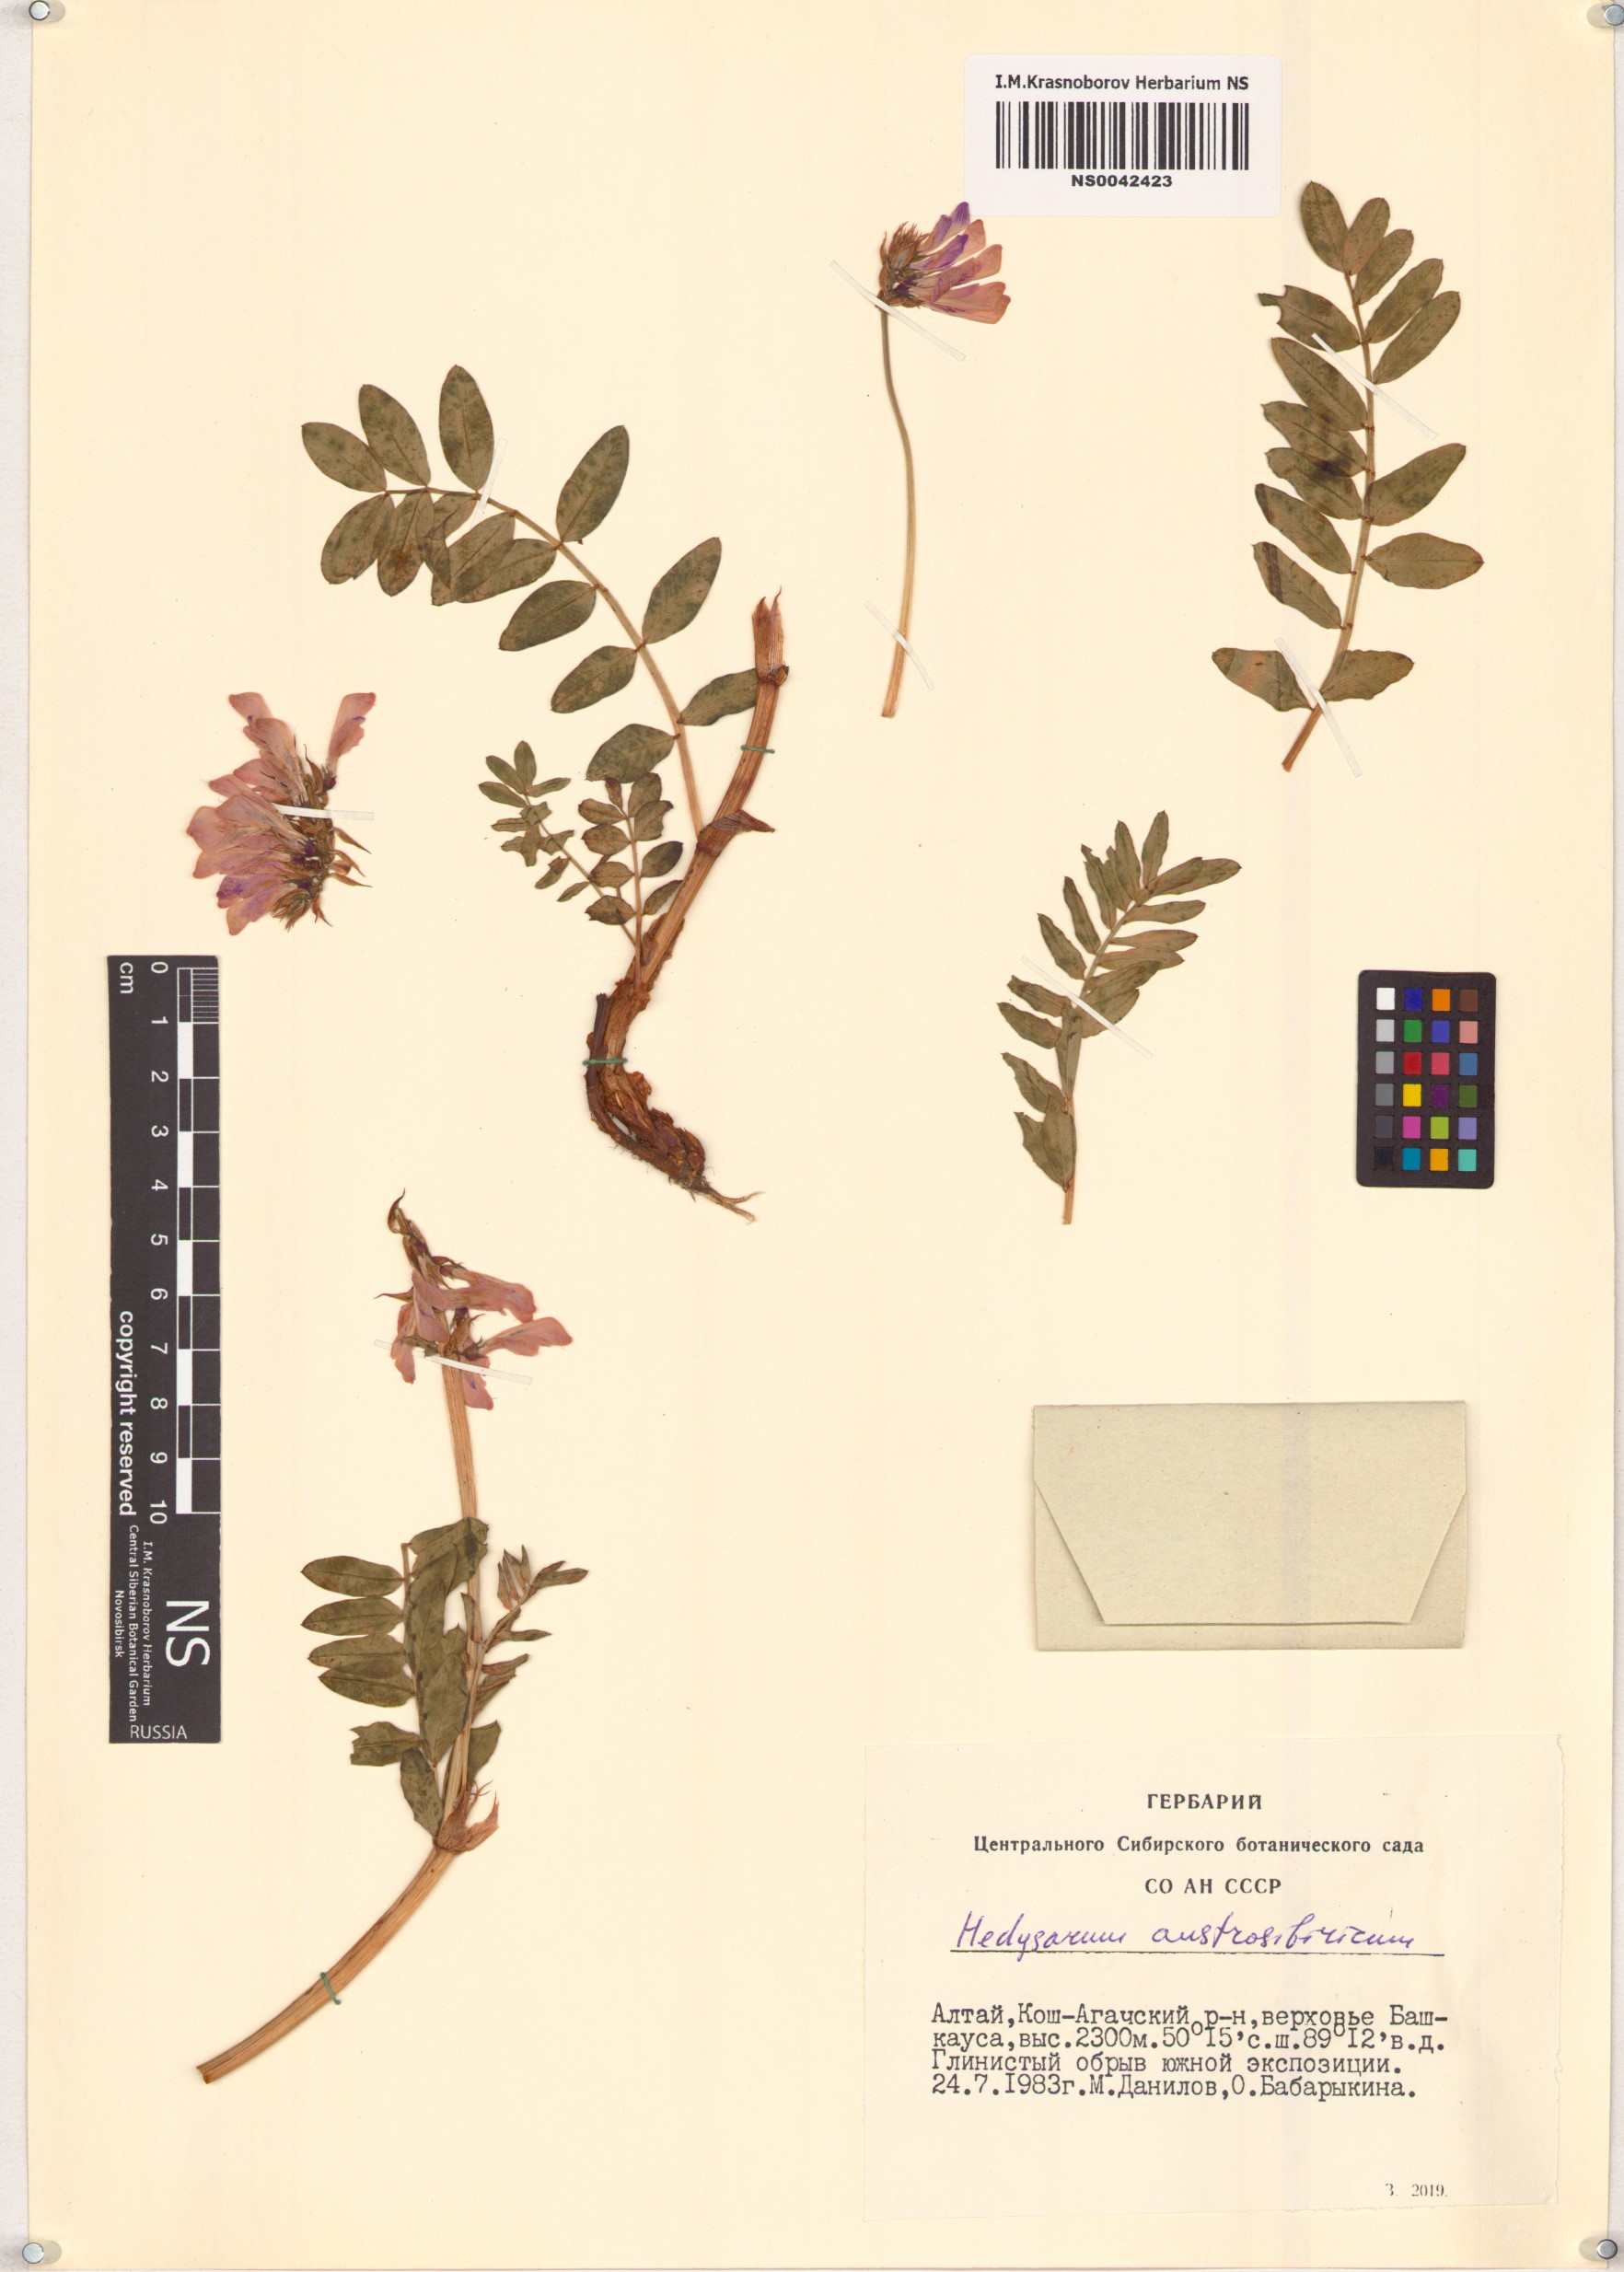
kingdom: Plantae
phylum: Tracheophyta
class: Magnoliopsida
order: Fabales
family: Fabaceae
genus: Hedysarum
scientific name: Hedysarum neglectum
